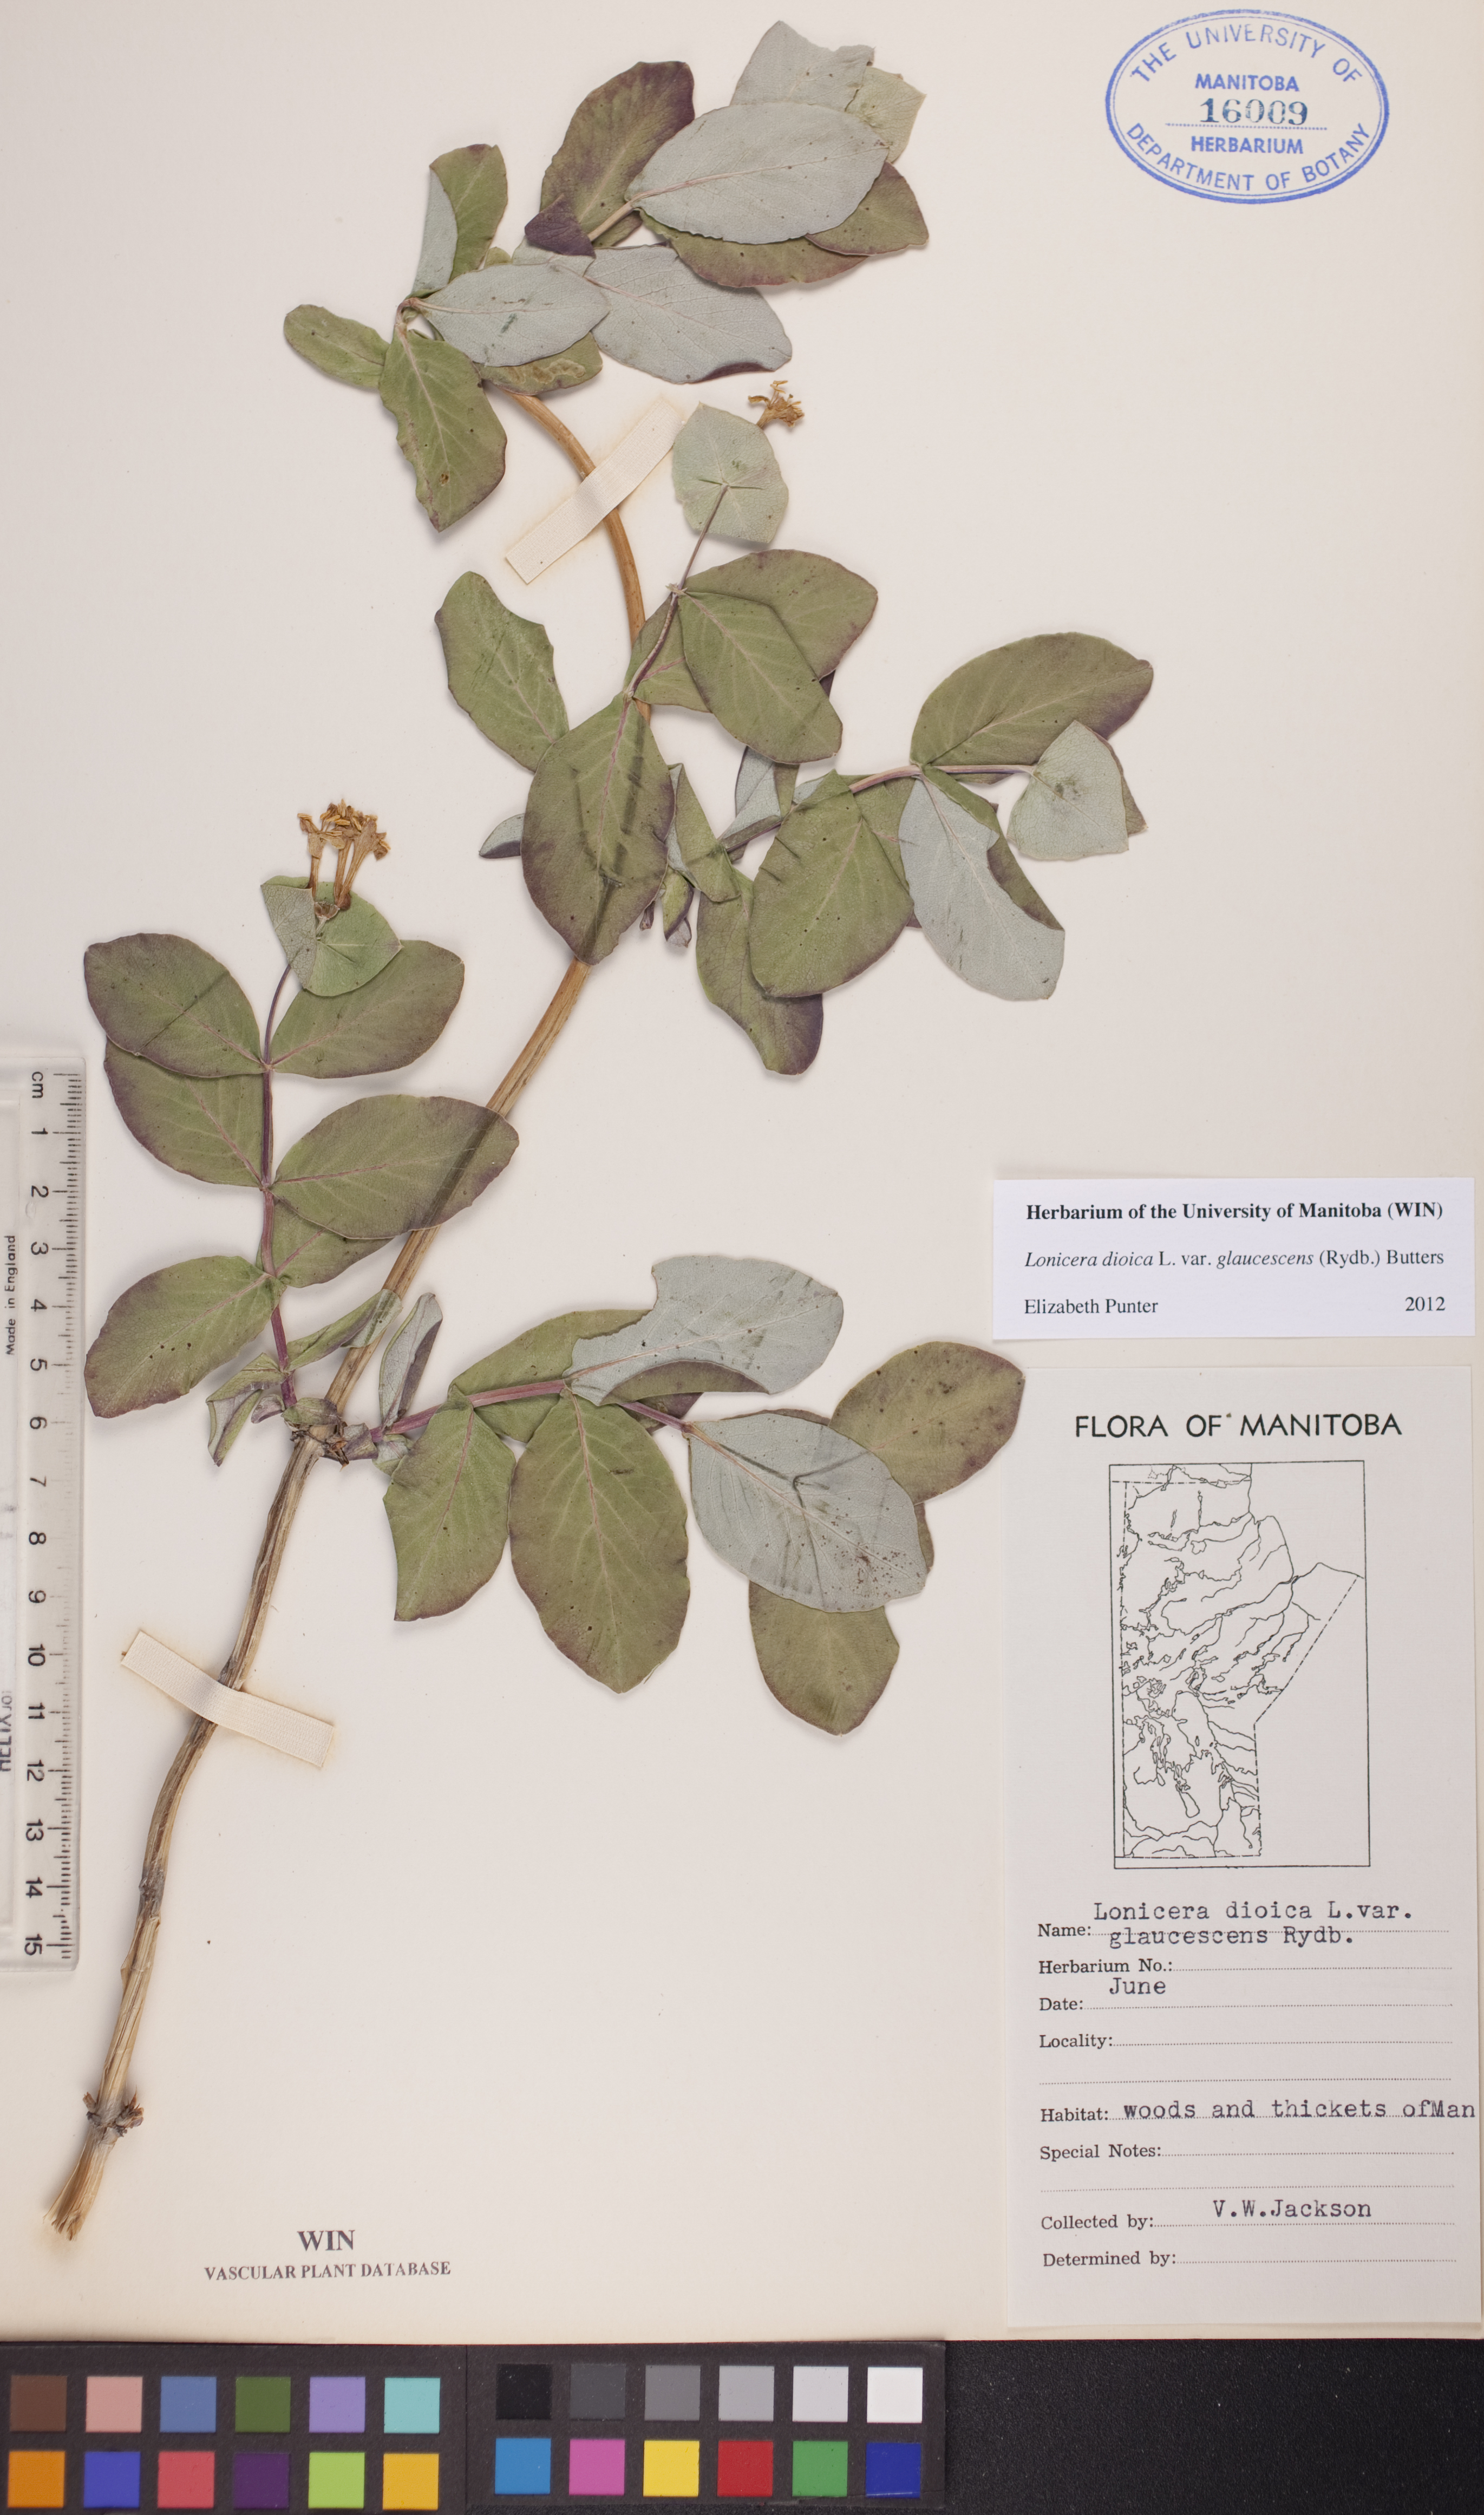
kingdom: Plantae
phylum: Tracheophyta
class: Magnoliopsida
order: Dipsacales
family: Caprifoliaceae
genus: Lonicera
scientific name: Lonicera dioica
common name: Limber honeysuckle
